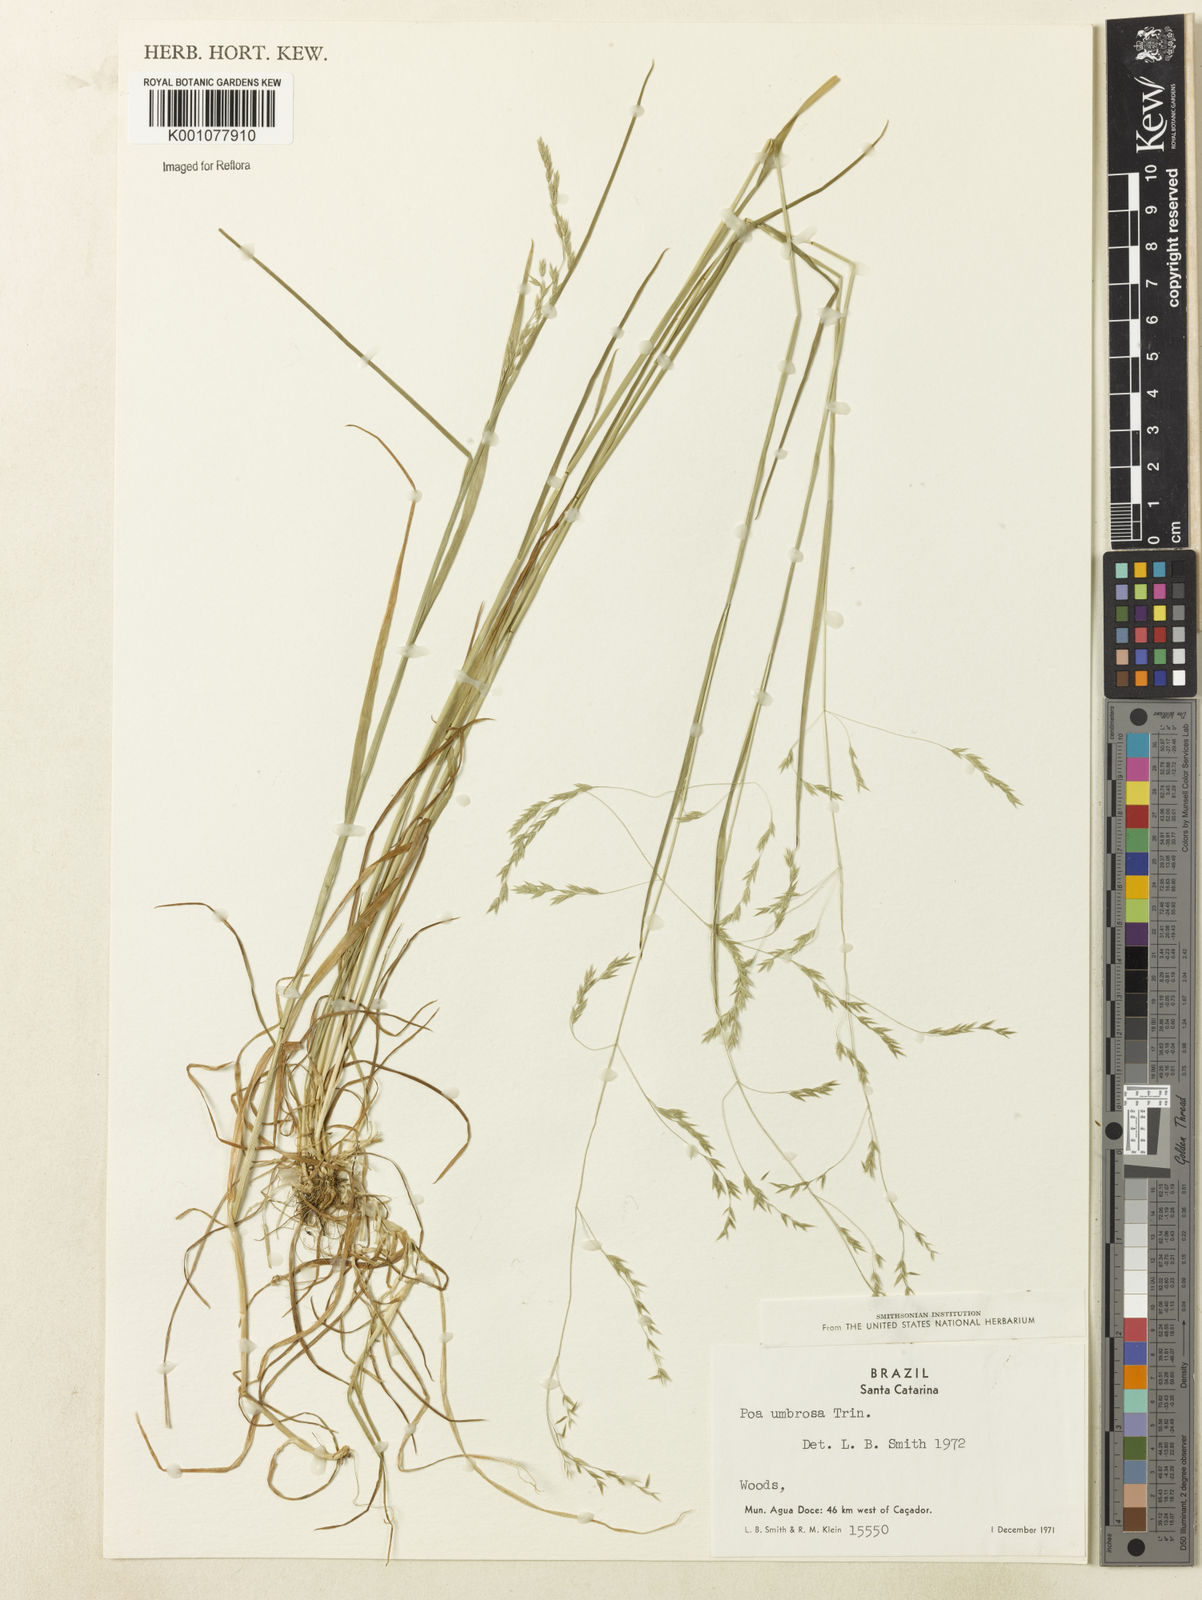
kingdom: Plantae
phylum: Tracheophyta
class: Liliopsida
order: Poales
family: Poaceae
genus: Poa
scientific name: Poa umbrosa
